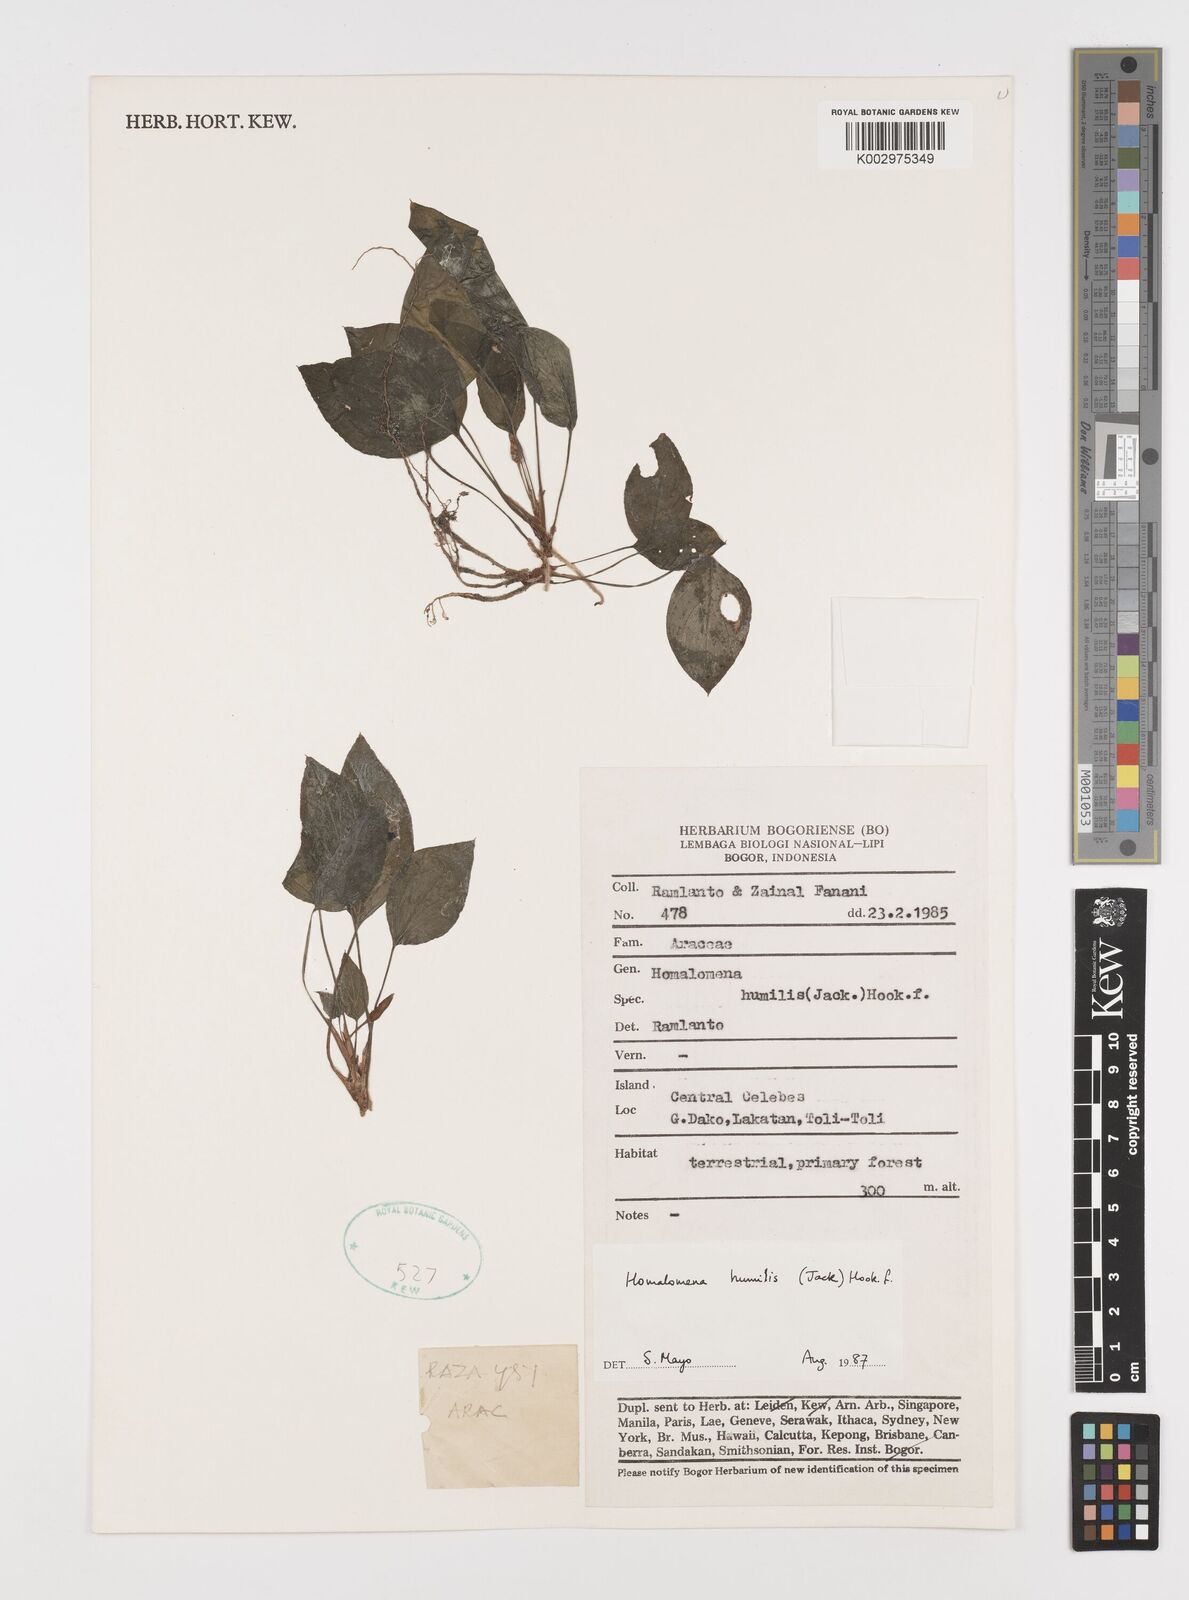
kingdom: Plantae
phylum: Tracheophyta
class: Liliopsida
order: Alismatales
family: Araceae
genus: Homalomena
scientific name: Homalomena humilis
